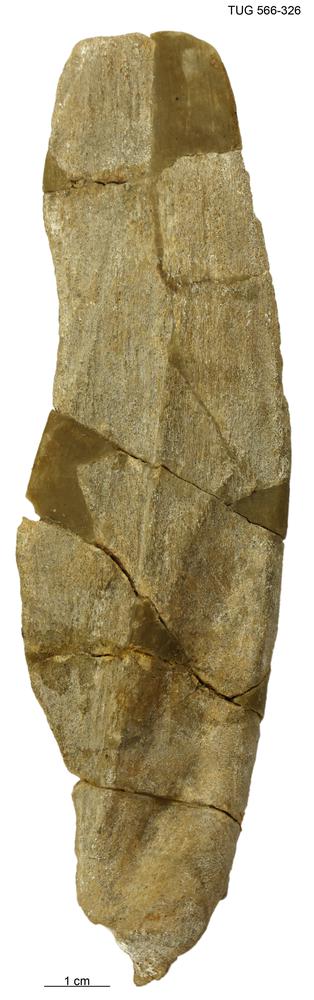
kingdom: Animalia
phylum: Chordata
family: Homostiidae
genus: Homostius
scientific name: Homostius
